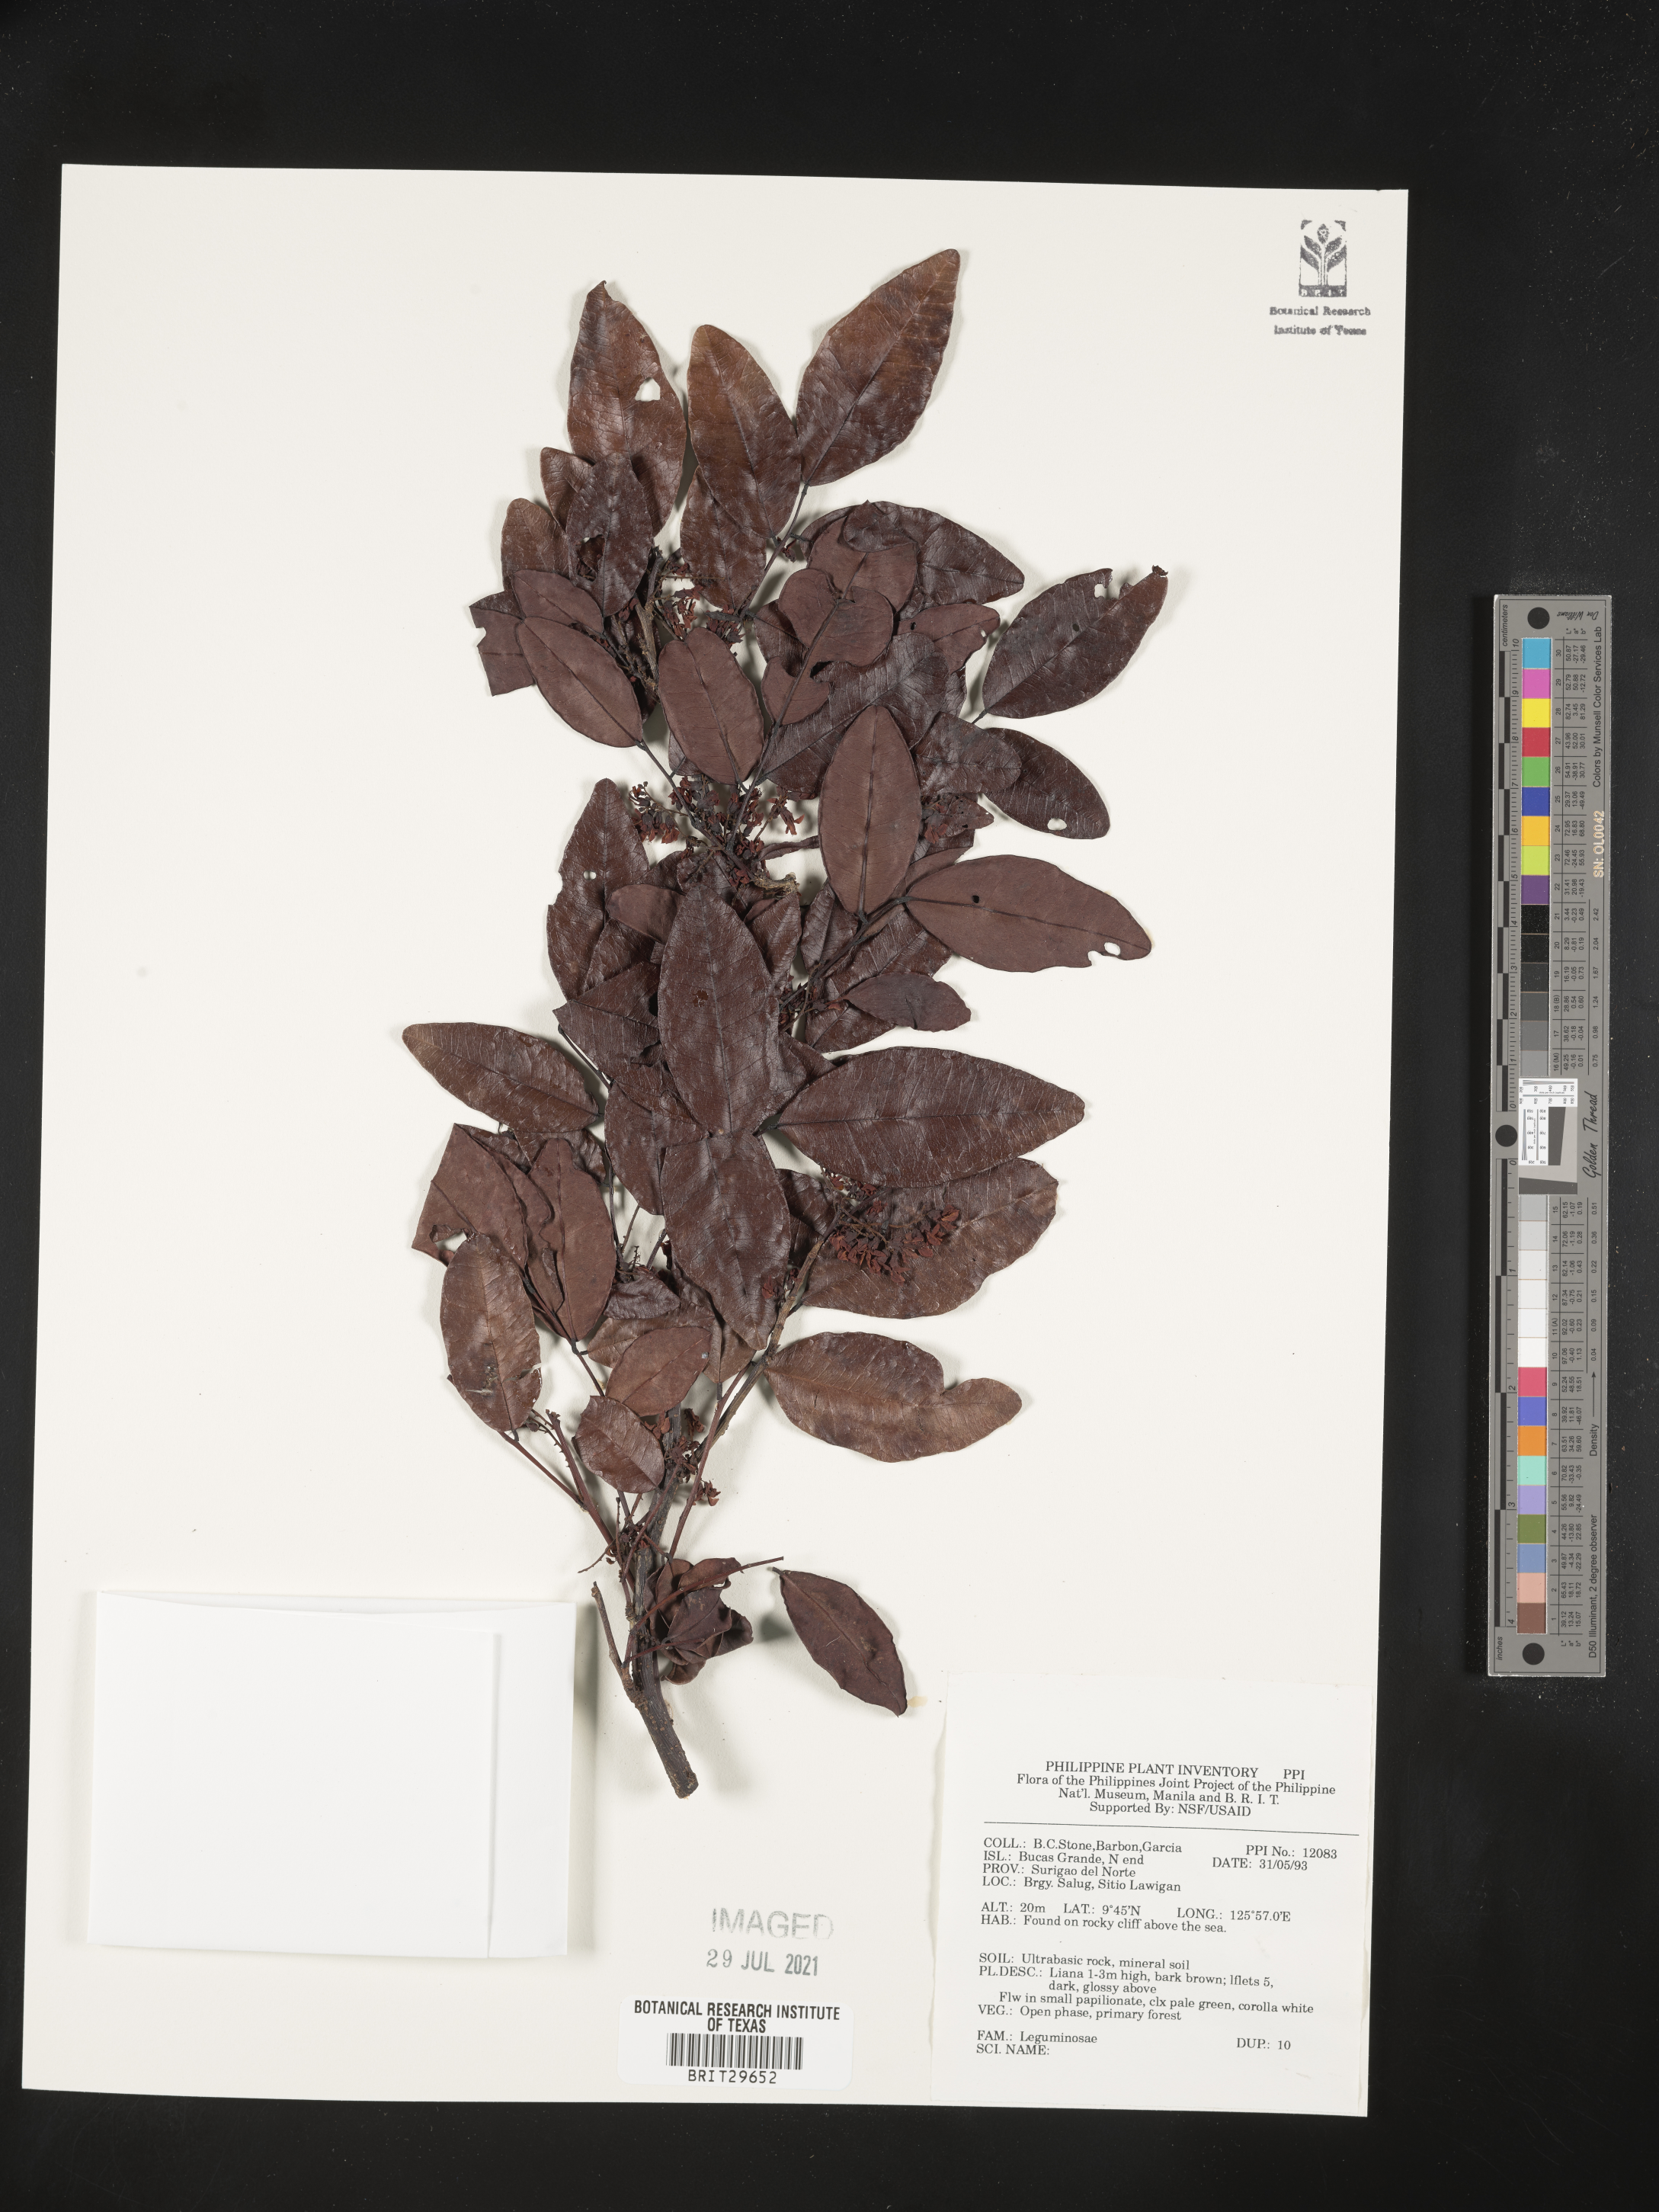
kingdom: Plantae
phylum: Tracheophyta
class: Magnoliopsida
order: Fabales
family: Fabaceae
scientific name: Fabaceae
